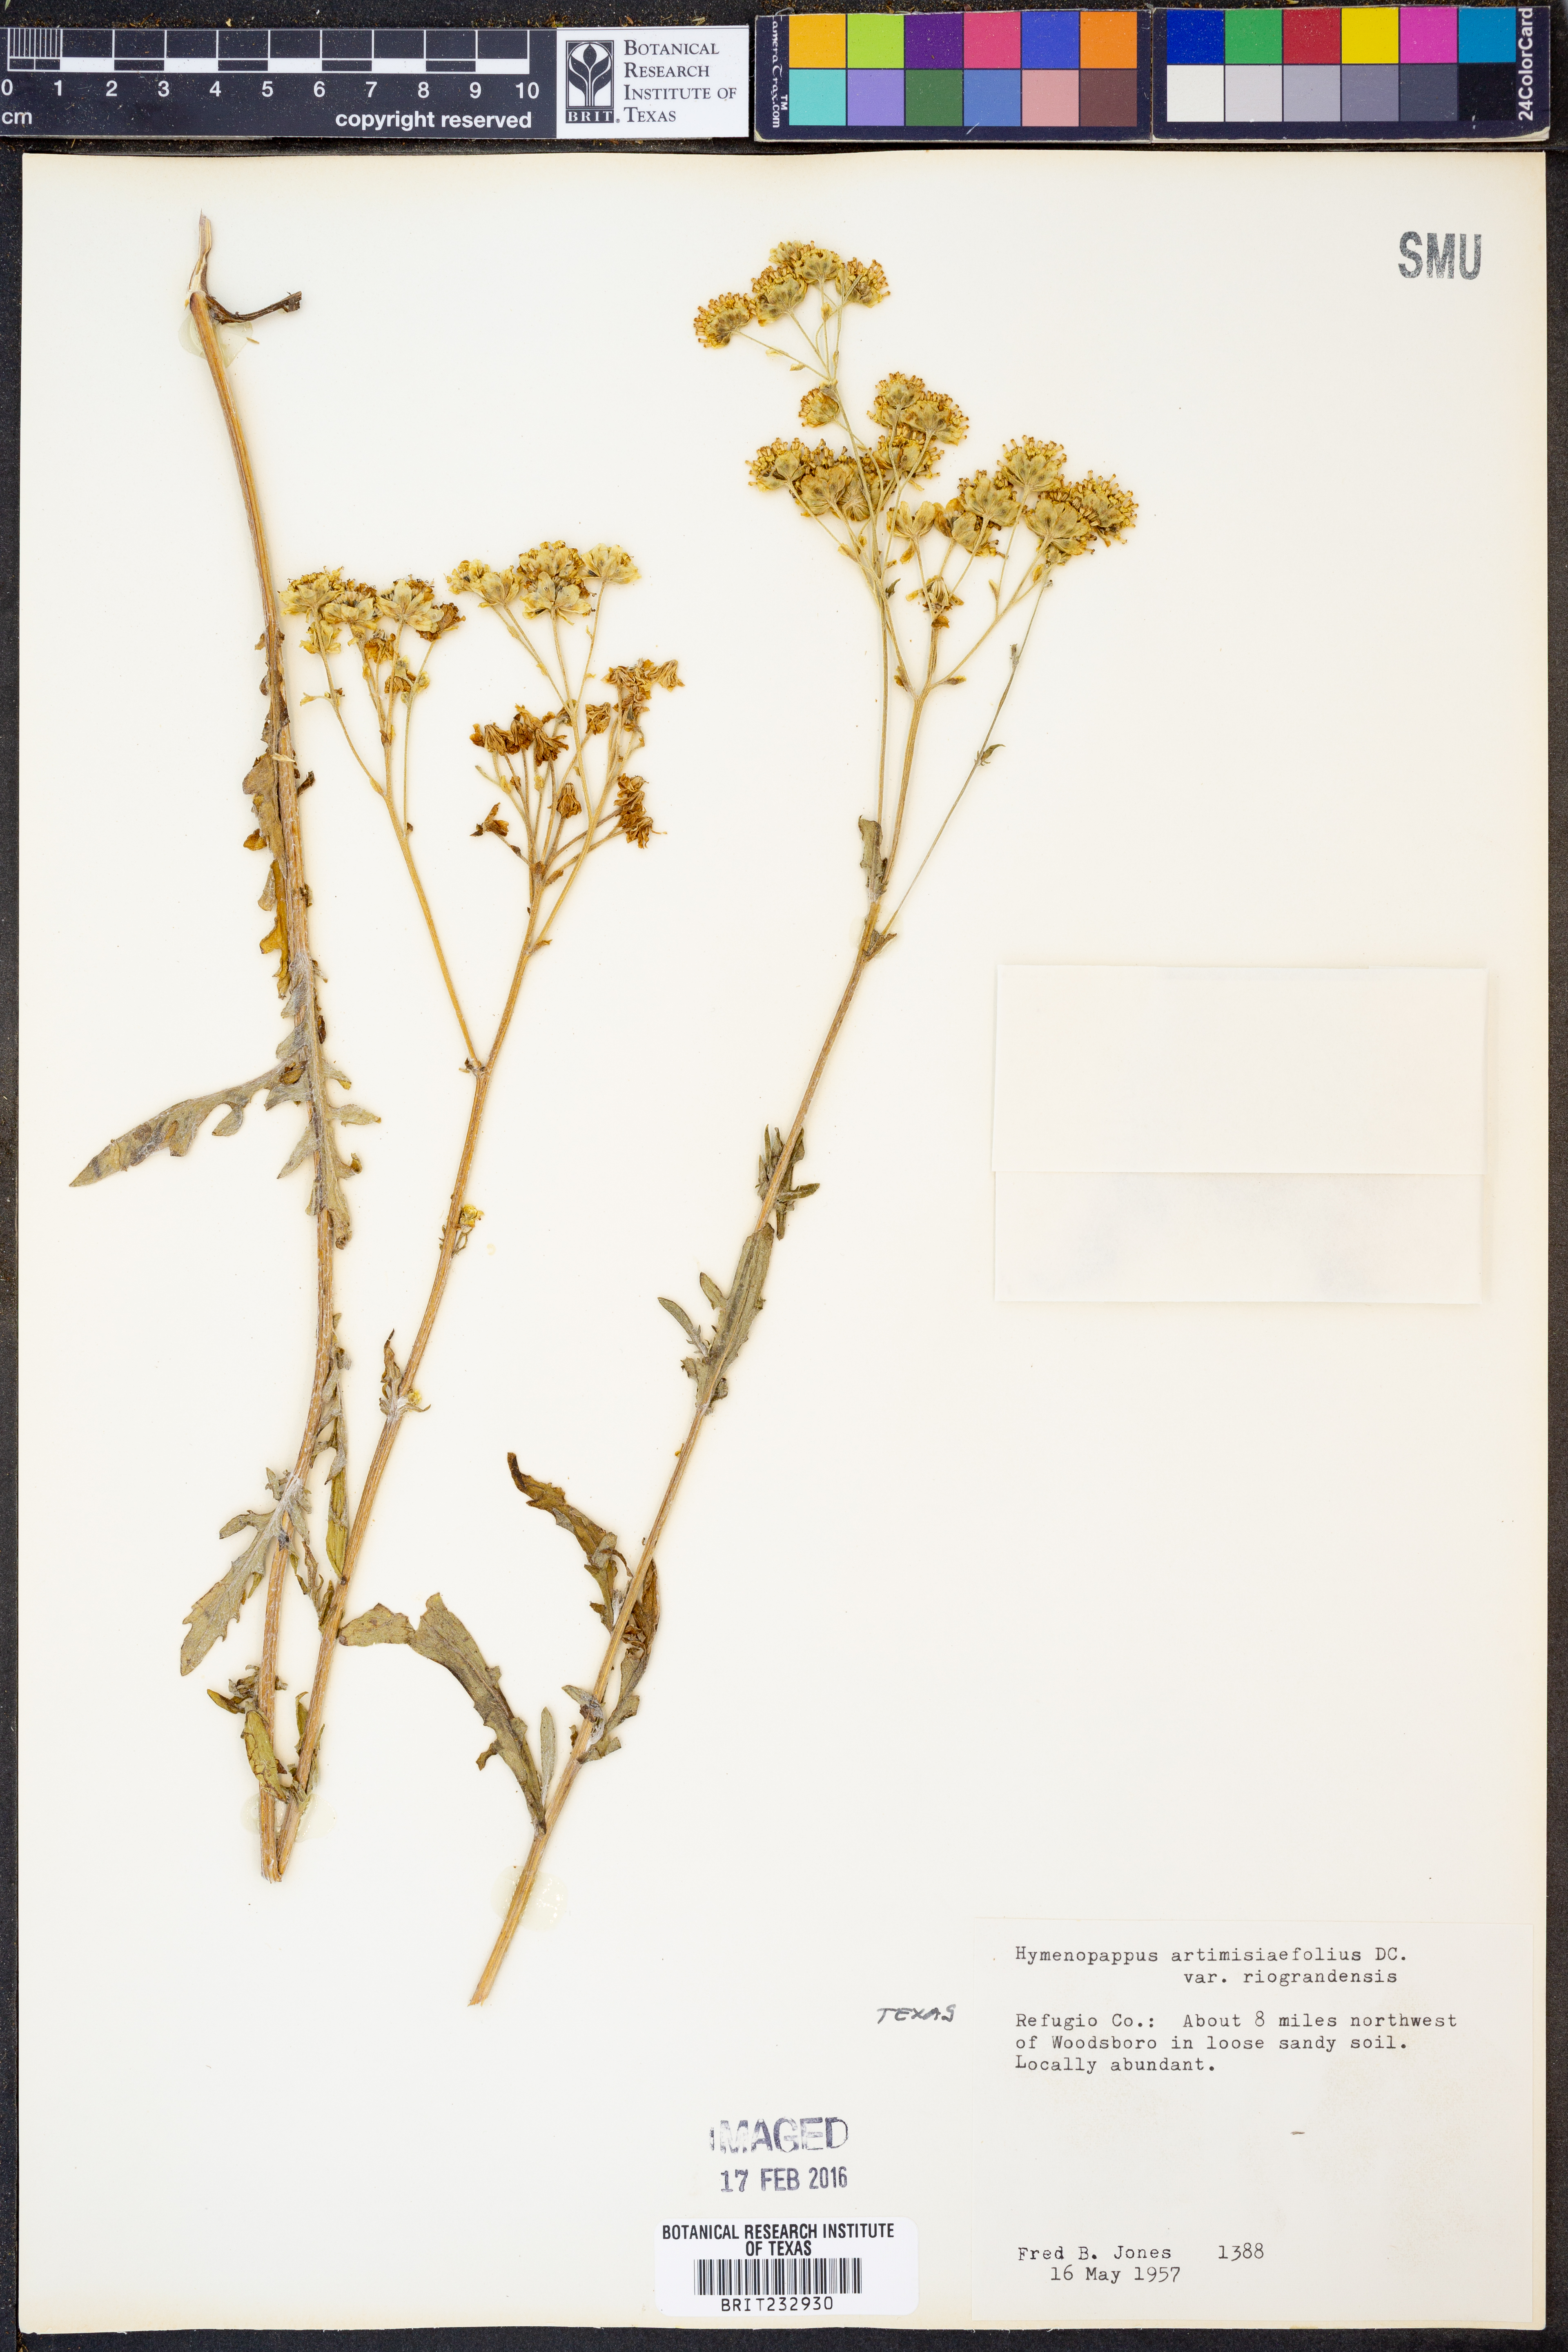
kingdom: Plantae
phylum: Tracheophyta
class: Magnoliopsida
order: Asterales
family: Asteraceae
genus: Hymenopappus
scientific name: Hymenopappus artemisiifolius
